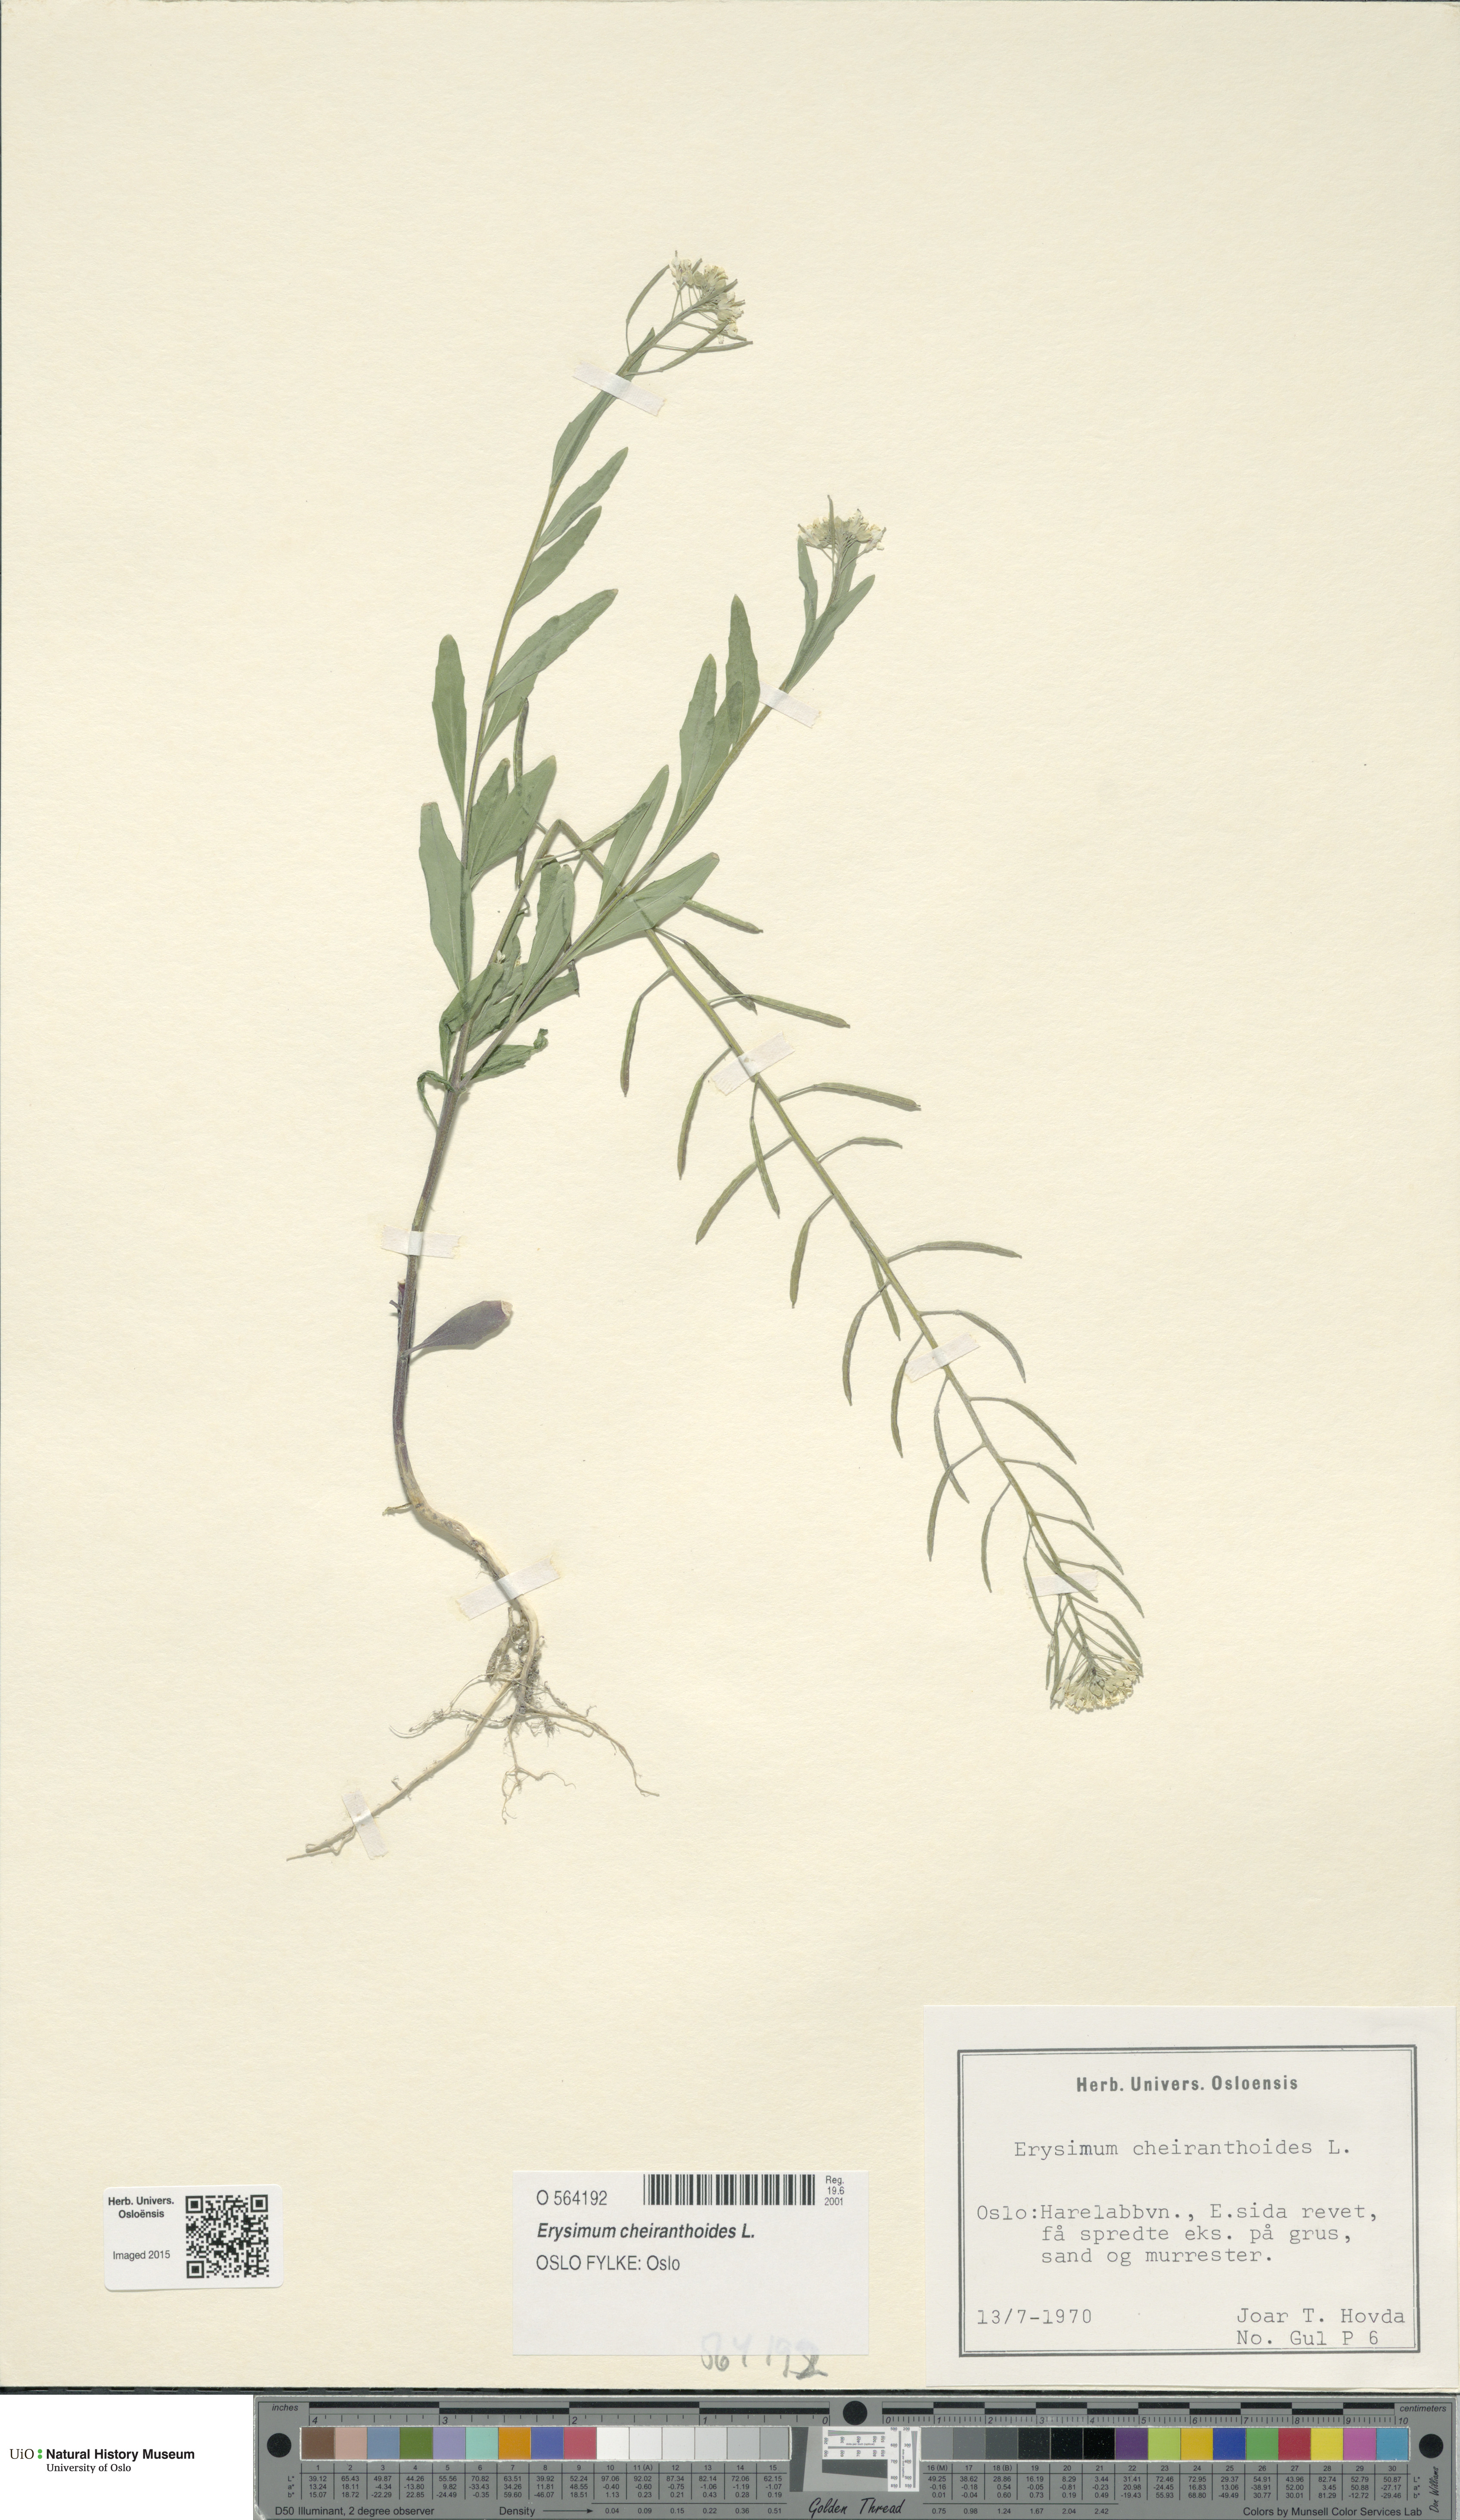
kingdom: Plantae
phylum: Tracheophyta
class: Magnoliopsida
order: Brassicales
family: Brassicaceae
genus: Erysimum
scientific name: Erysimum cheiranthoides
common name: Treacle mustard
